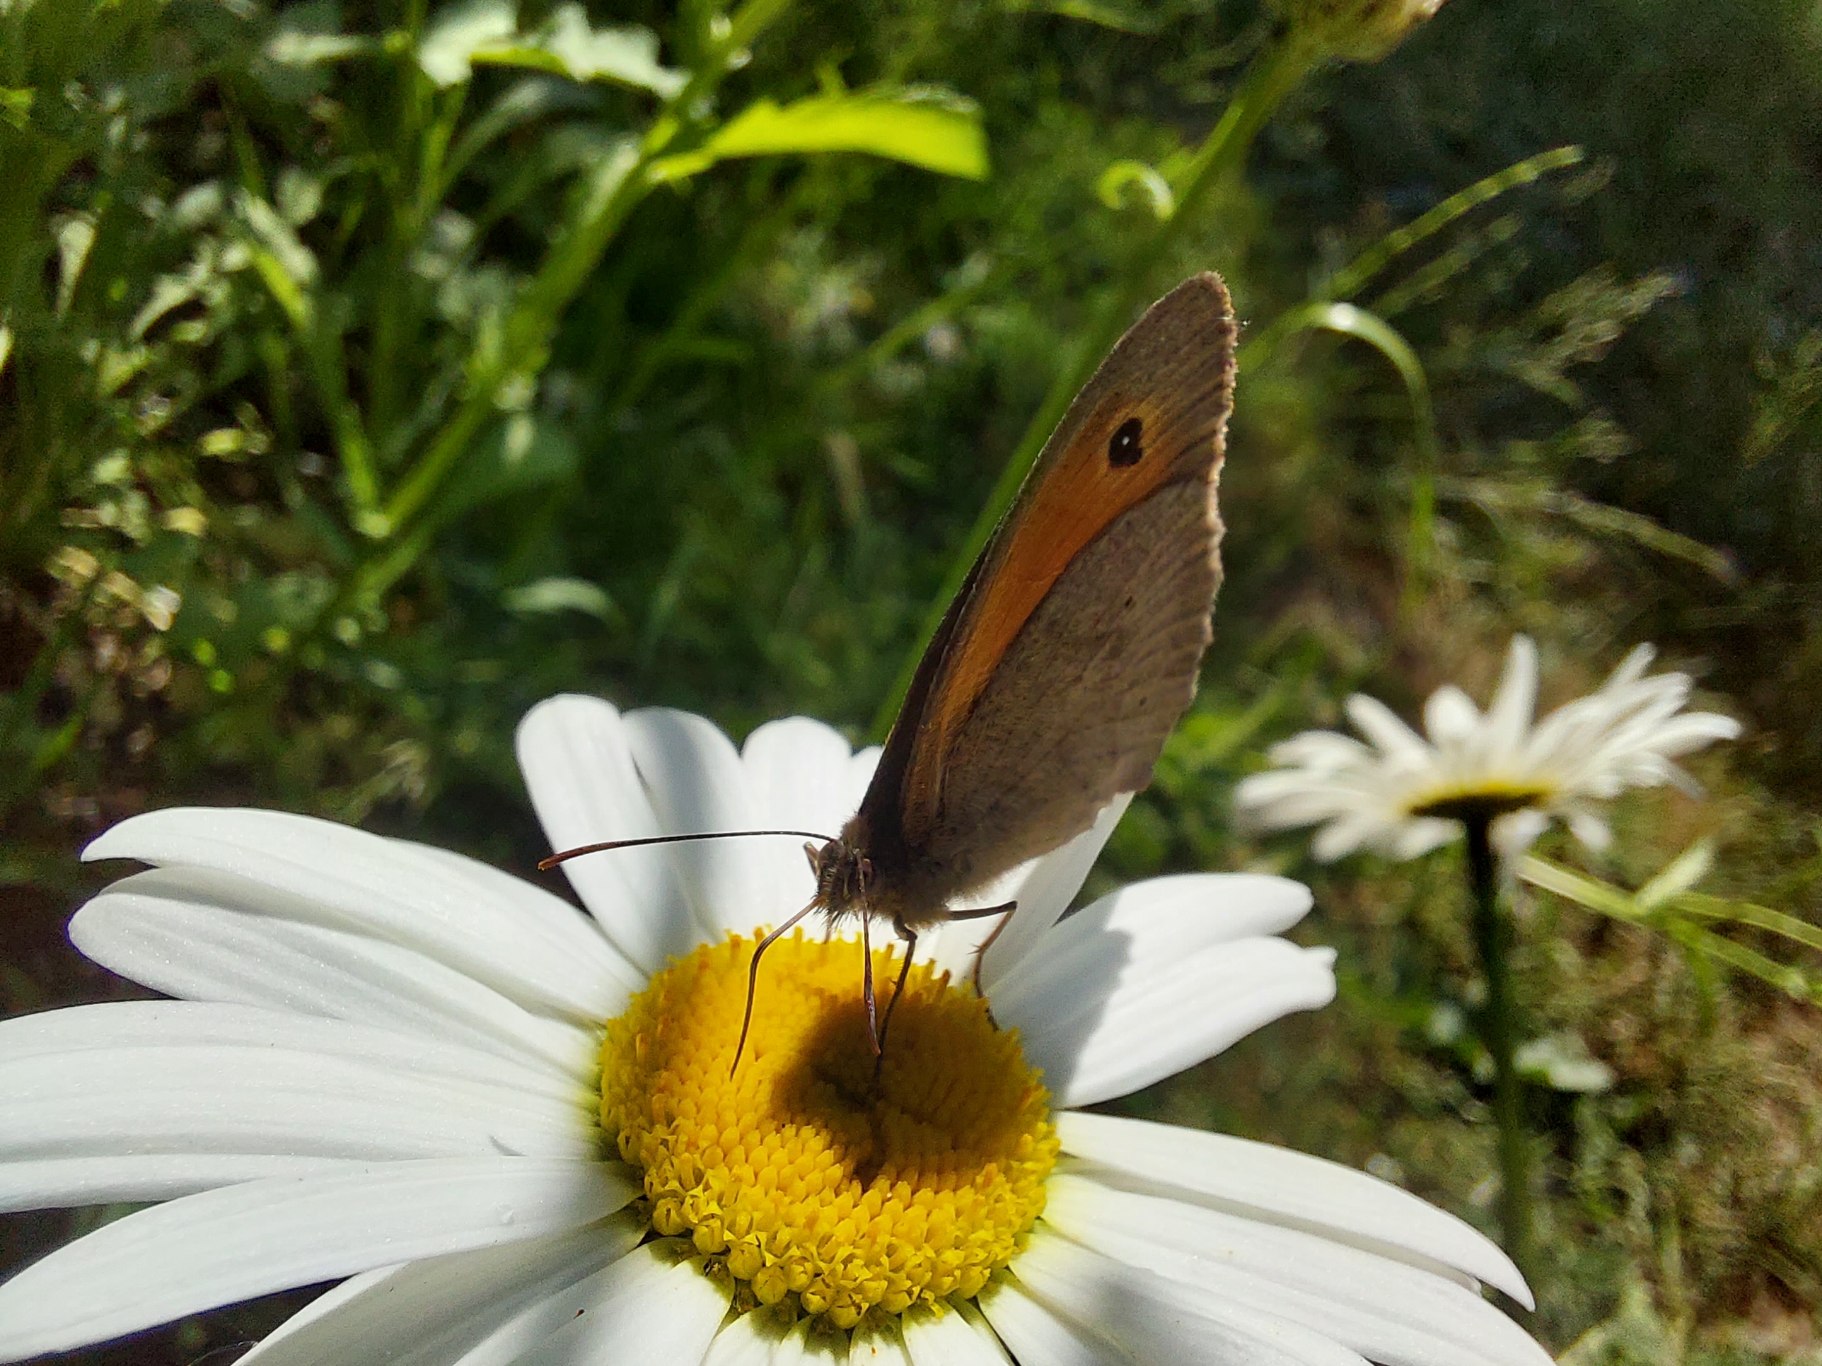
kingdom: Animalia
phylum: Arthropoda
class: Insecta
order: Lepidoptera
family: Nymphalidae
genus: Maniola
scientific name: Maniola jurtina
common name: Græsrandøje
